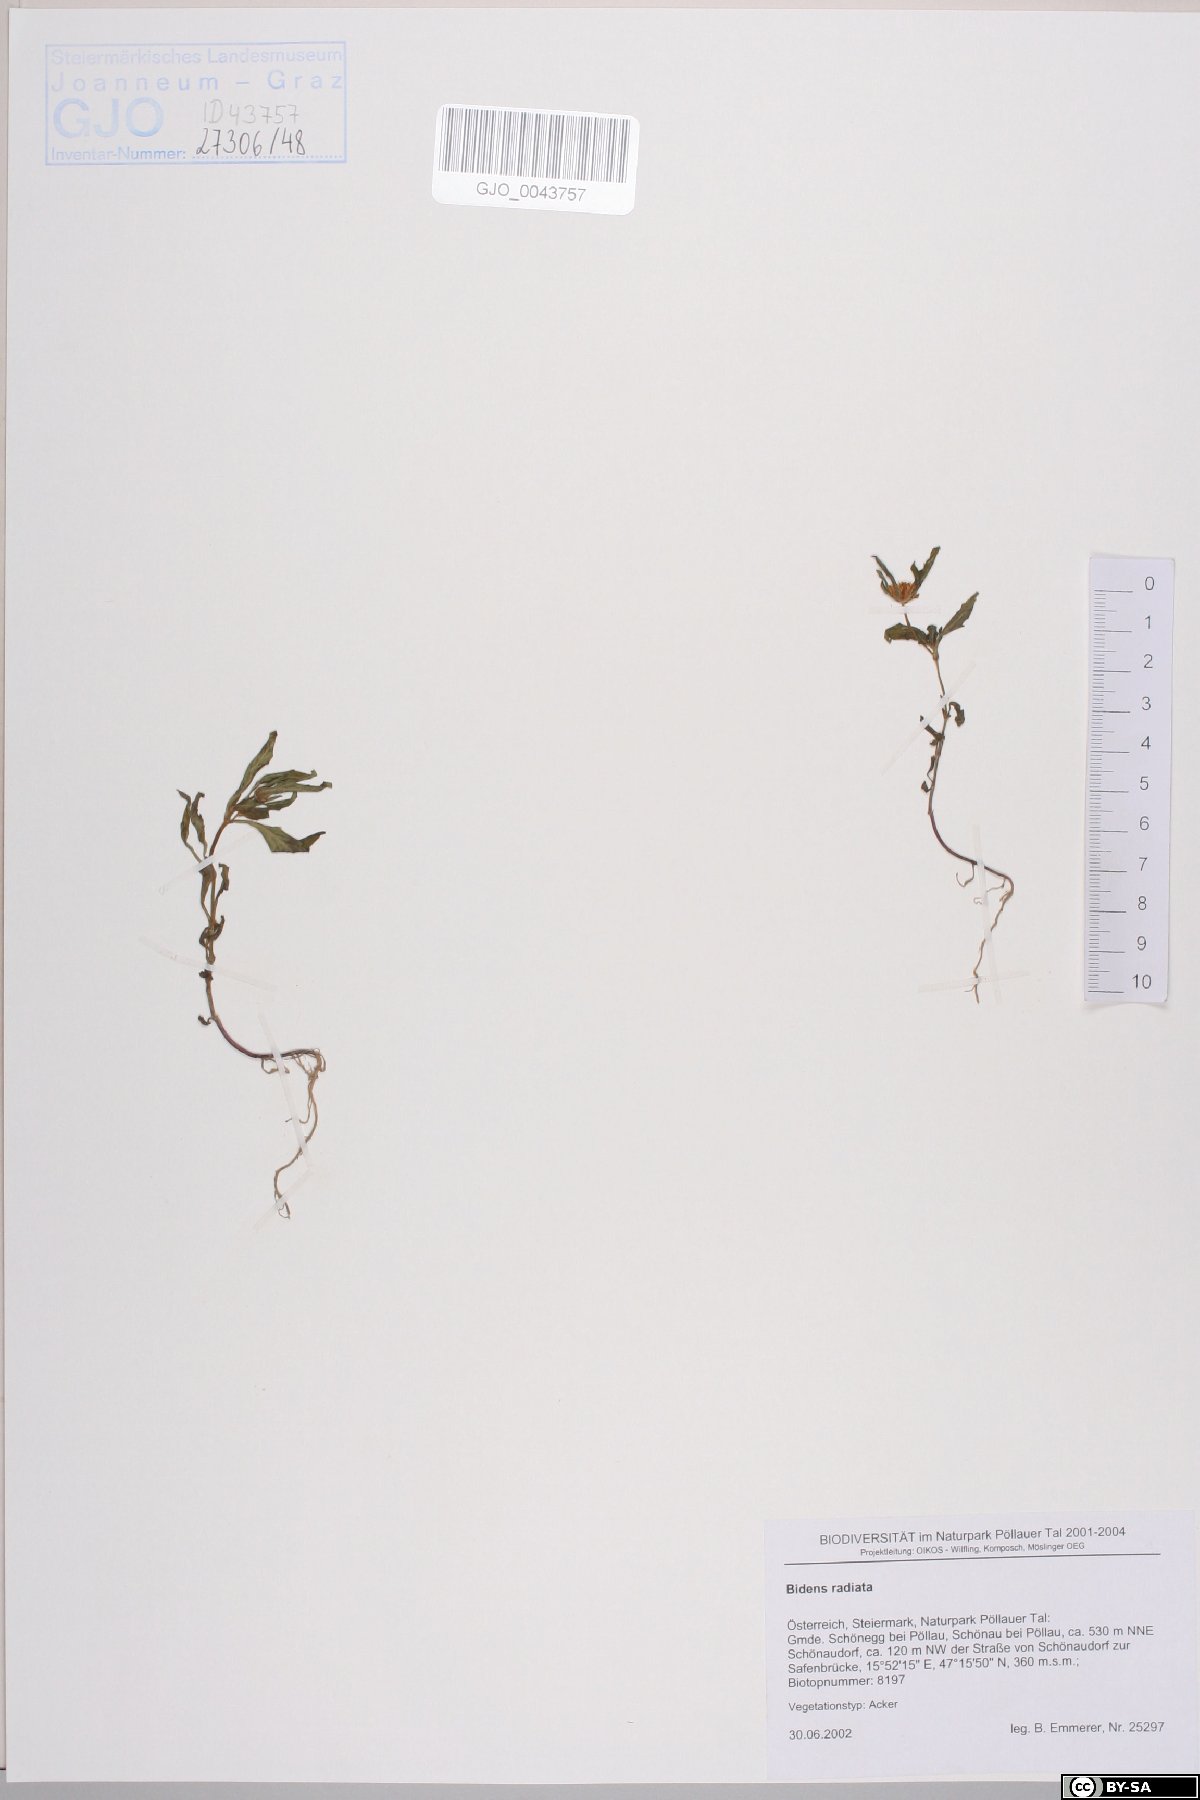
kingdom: Plantae
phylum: Tracheophyta
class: Magnoliopsida
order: Asterales
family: Asteraceae
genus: Bidens
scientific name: Bidens radiata
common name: Radiating bur-marigold
